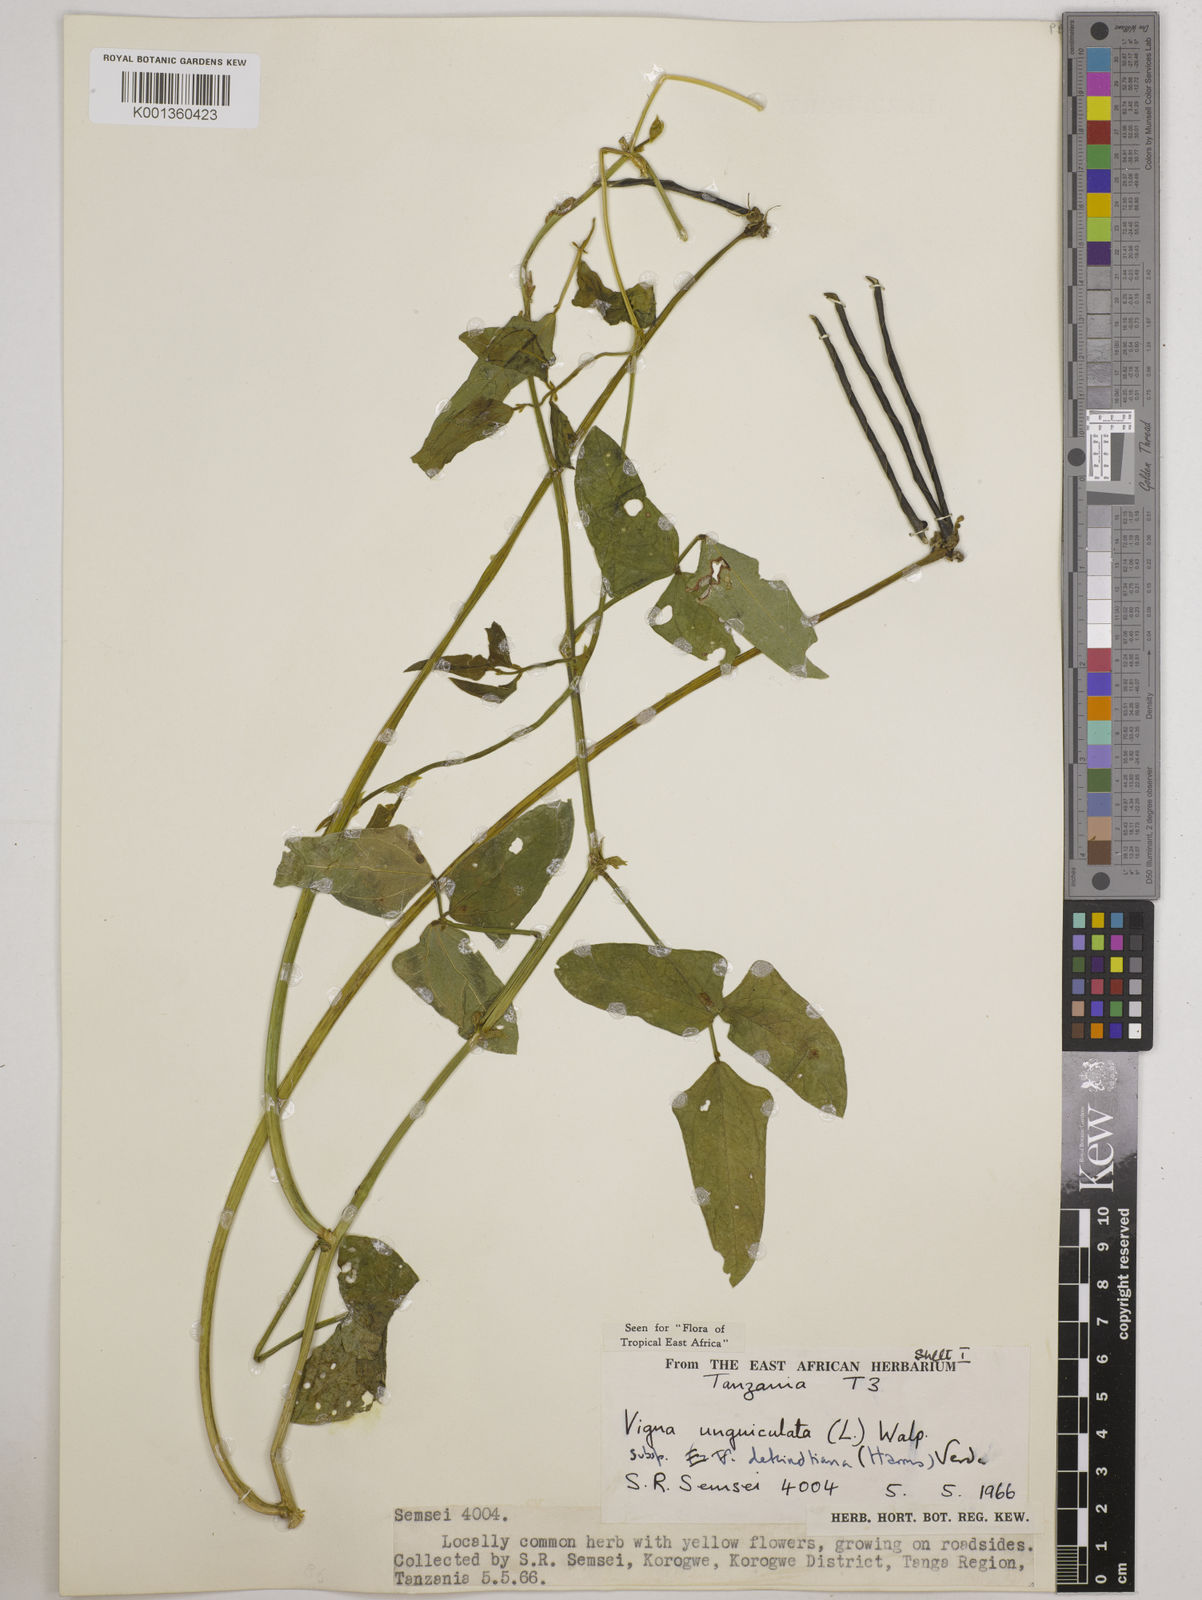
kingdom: Plantae
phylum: Tracheophyta
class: Magnoliopsida
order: Fabales
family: Fabaceae
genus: Vigna
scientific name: Vigna
